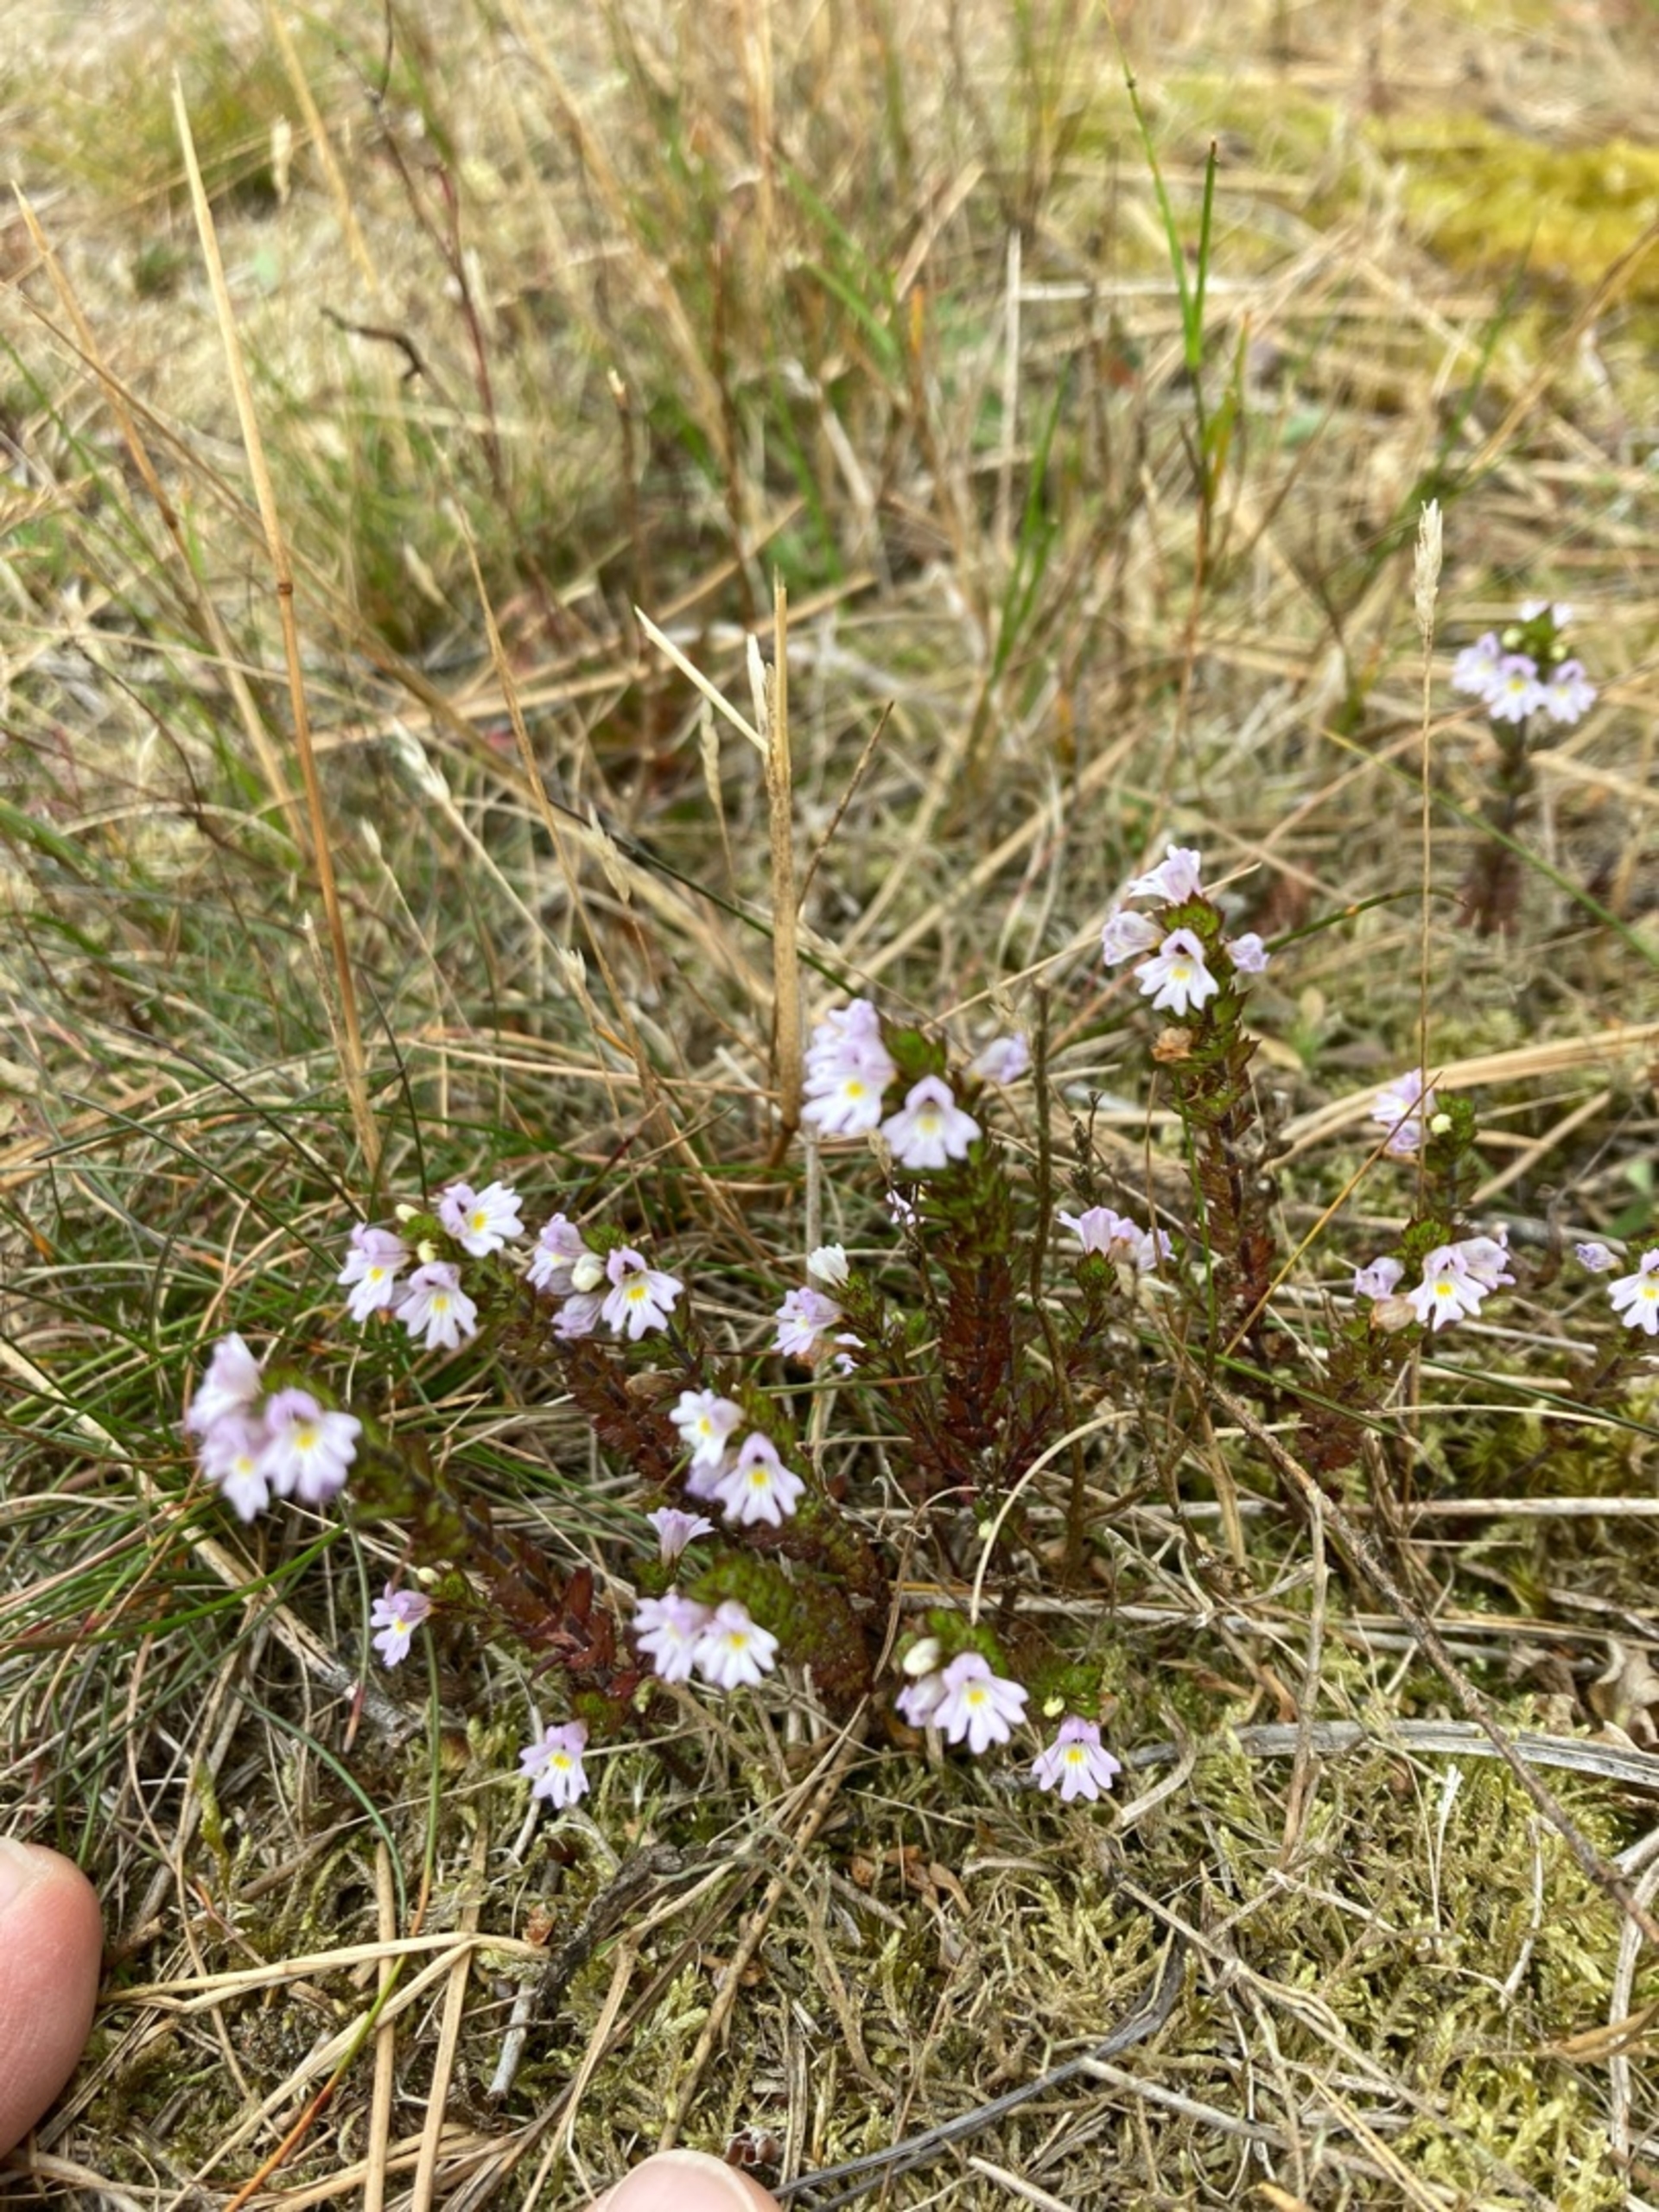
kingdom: Plantae
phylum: Tracheophyta
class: Magnoliopsida
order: Lamiales
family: Orobanchaceae
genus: Euphrasia
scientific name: Euphrasia stricta
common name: Spids øjentrøst
